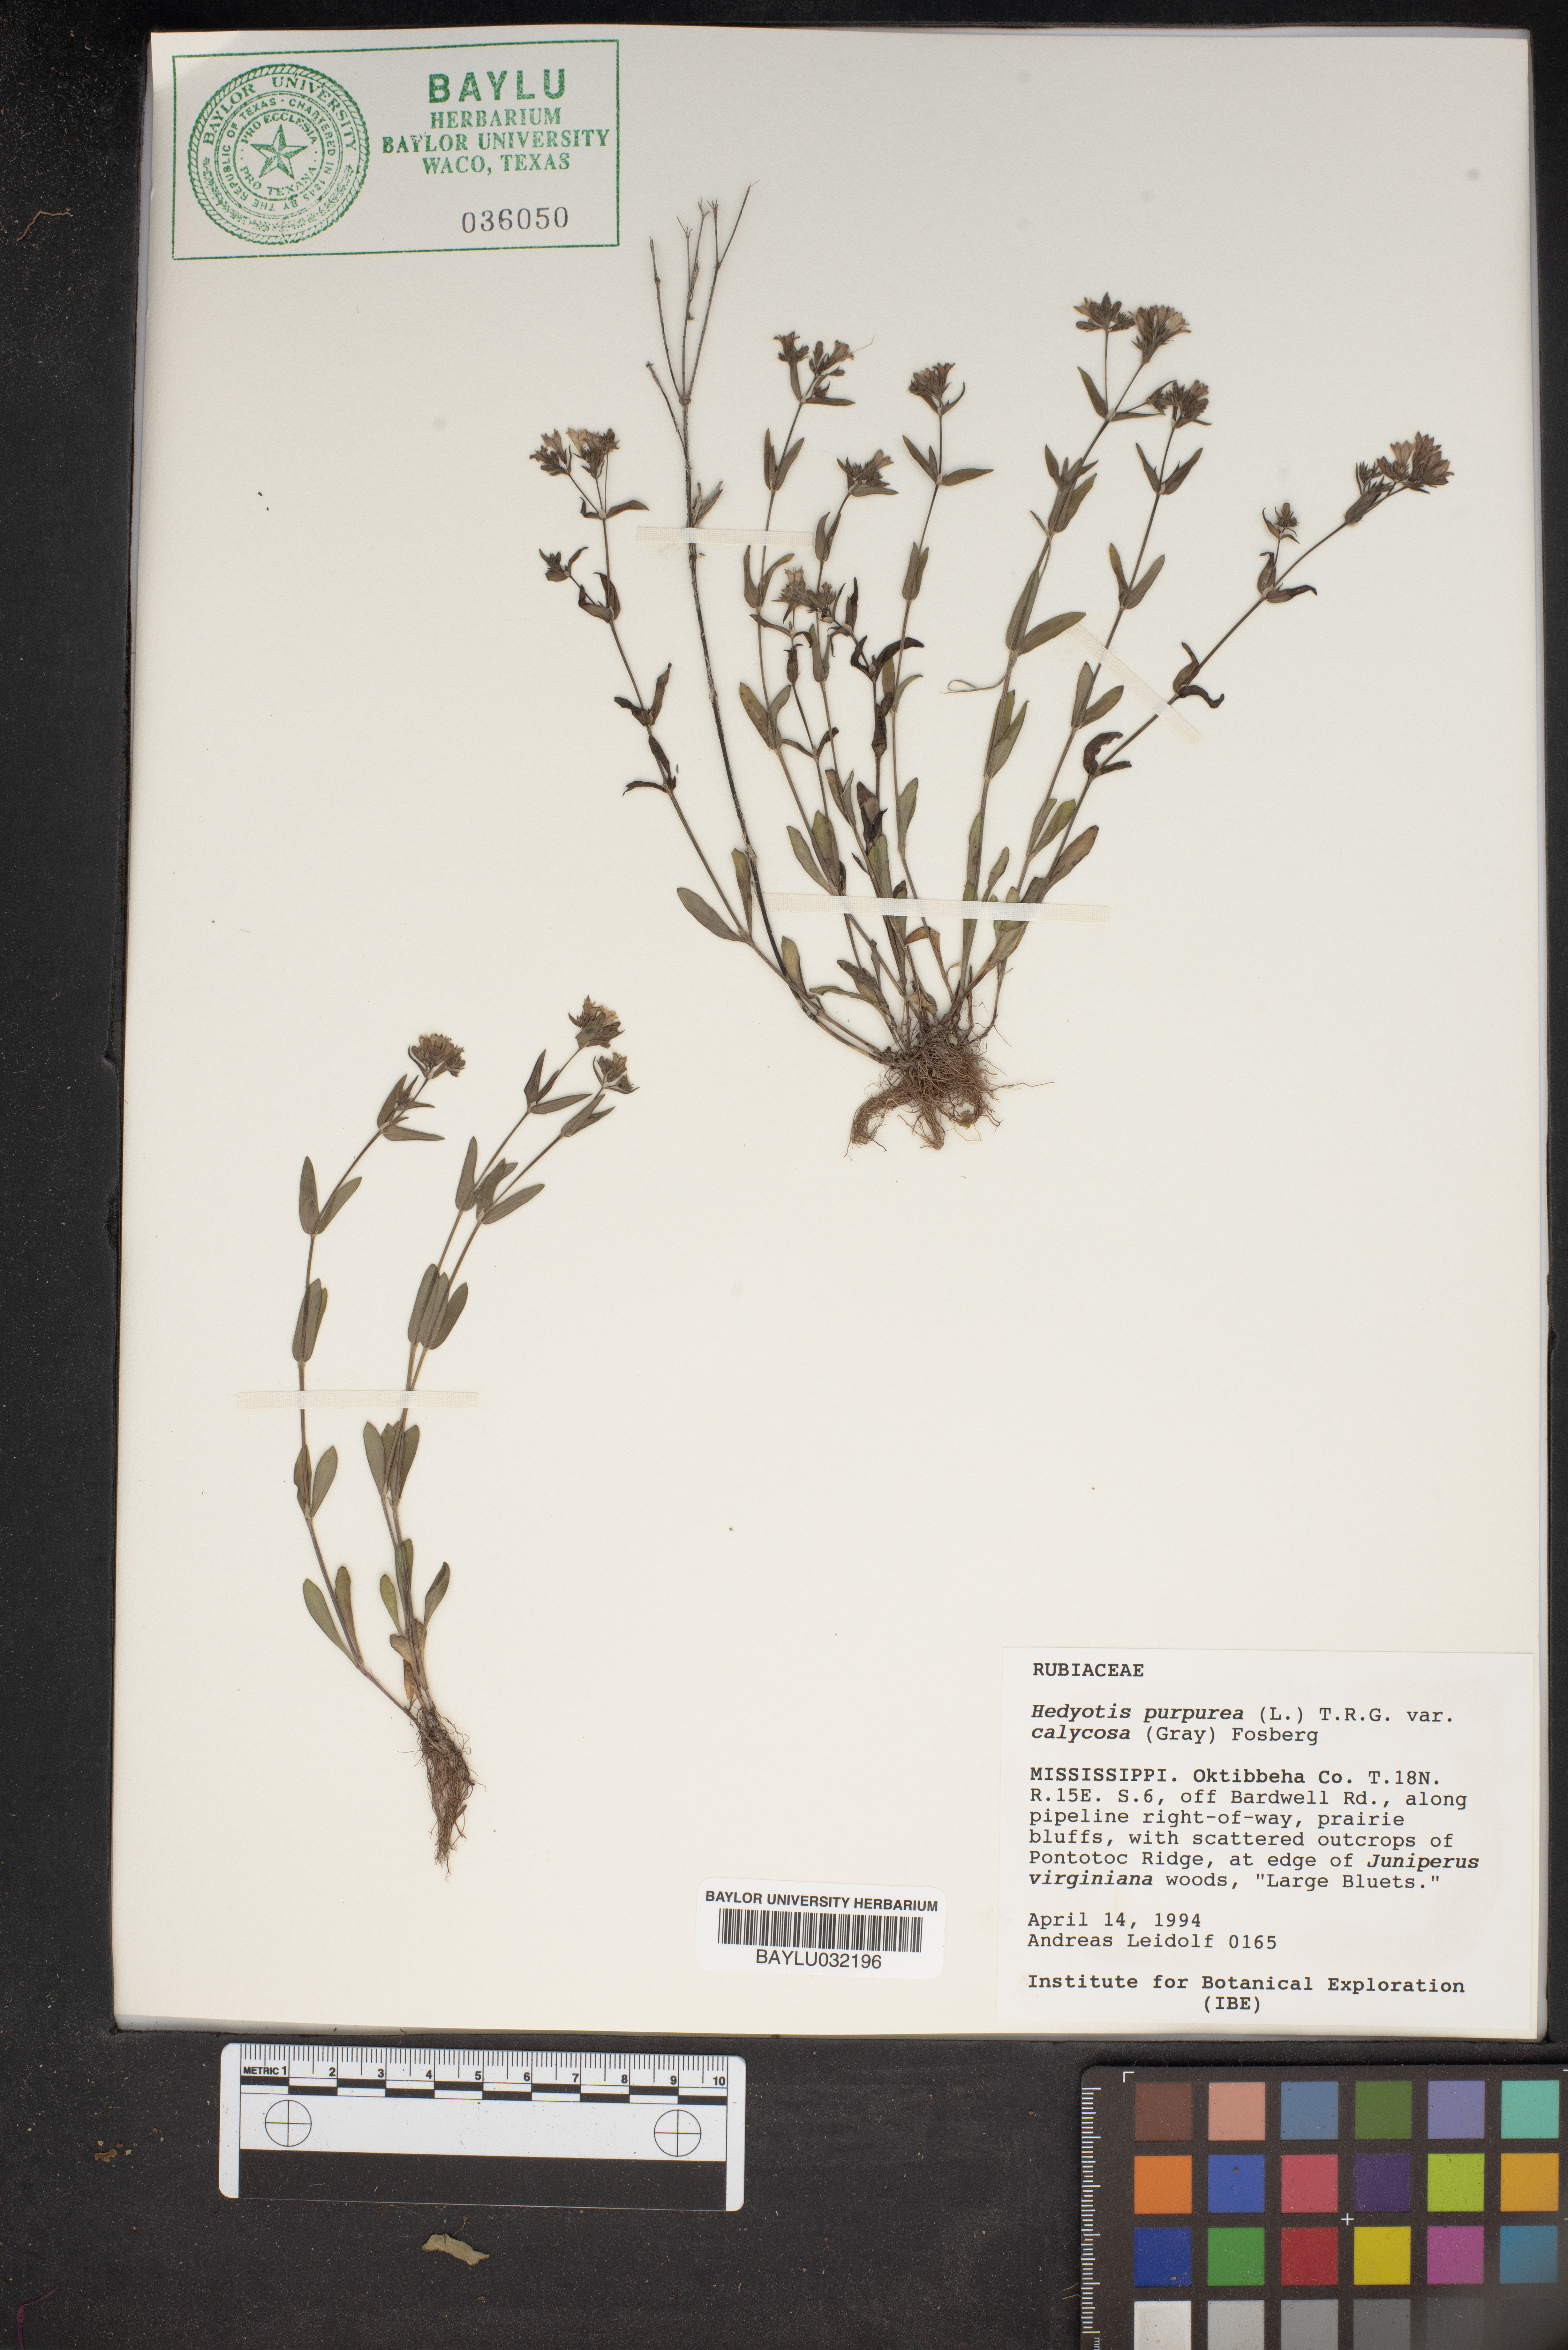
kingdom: Plantae
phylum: Tracheophyta
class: Magnoliopsida
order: Gentianales
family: Rubiaceae
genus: Houstonia
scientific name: Houstonia purpurea
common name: Summer bluet
